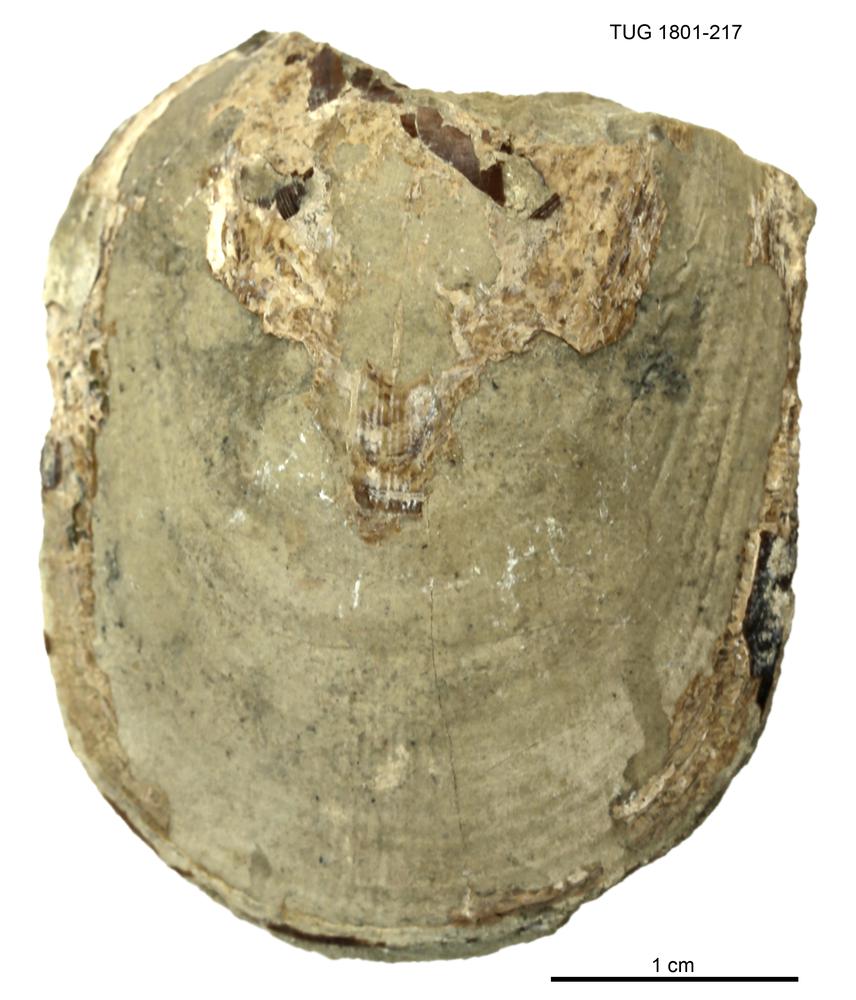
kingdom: Animalia
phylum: Brachiopoda
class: Lingulata
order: Lingulida
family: Pseudolingulidae
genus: Pseudolingula
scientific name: Pseudolingula Crania quadrata
